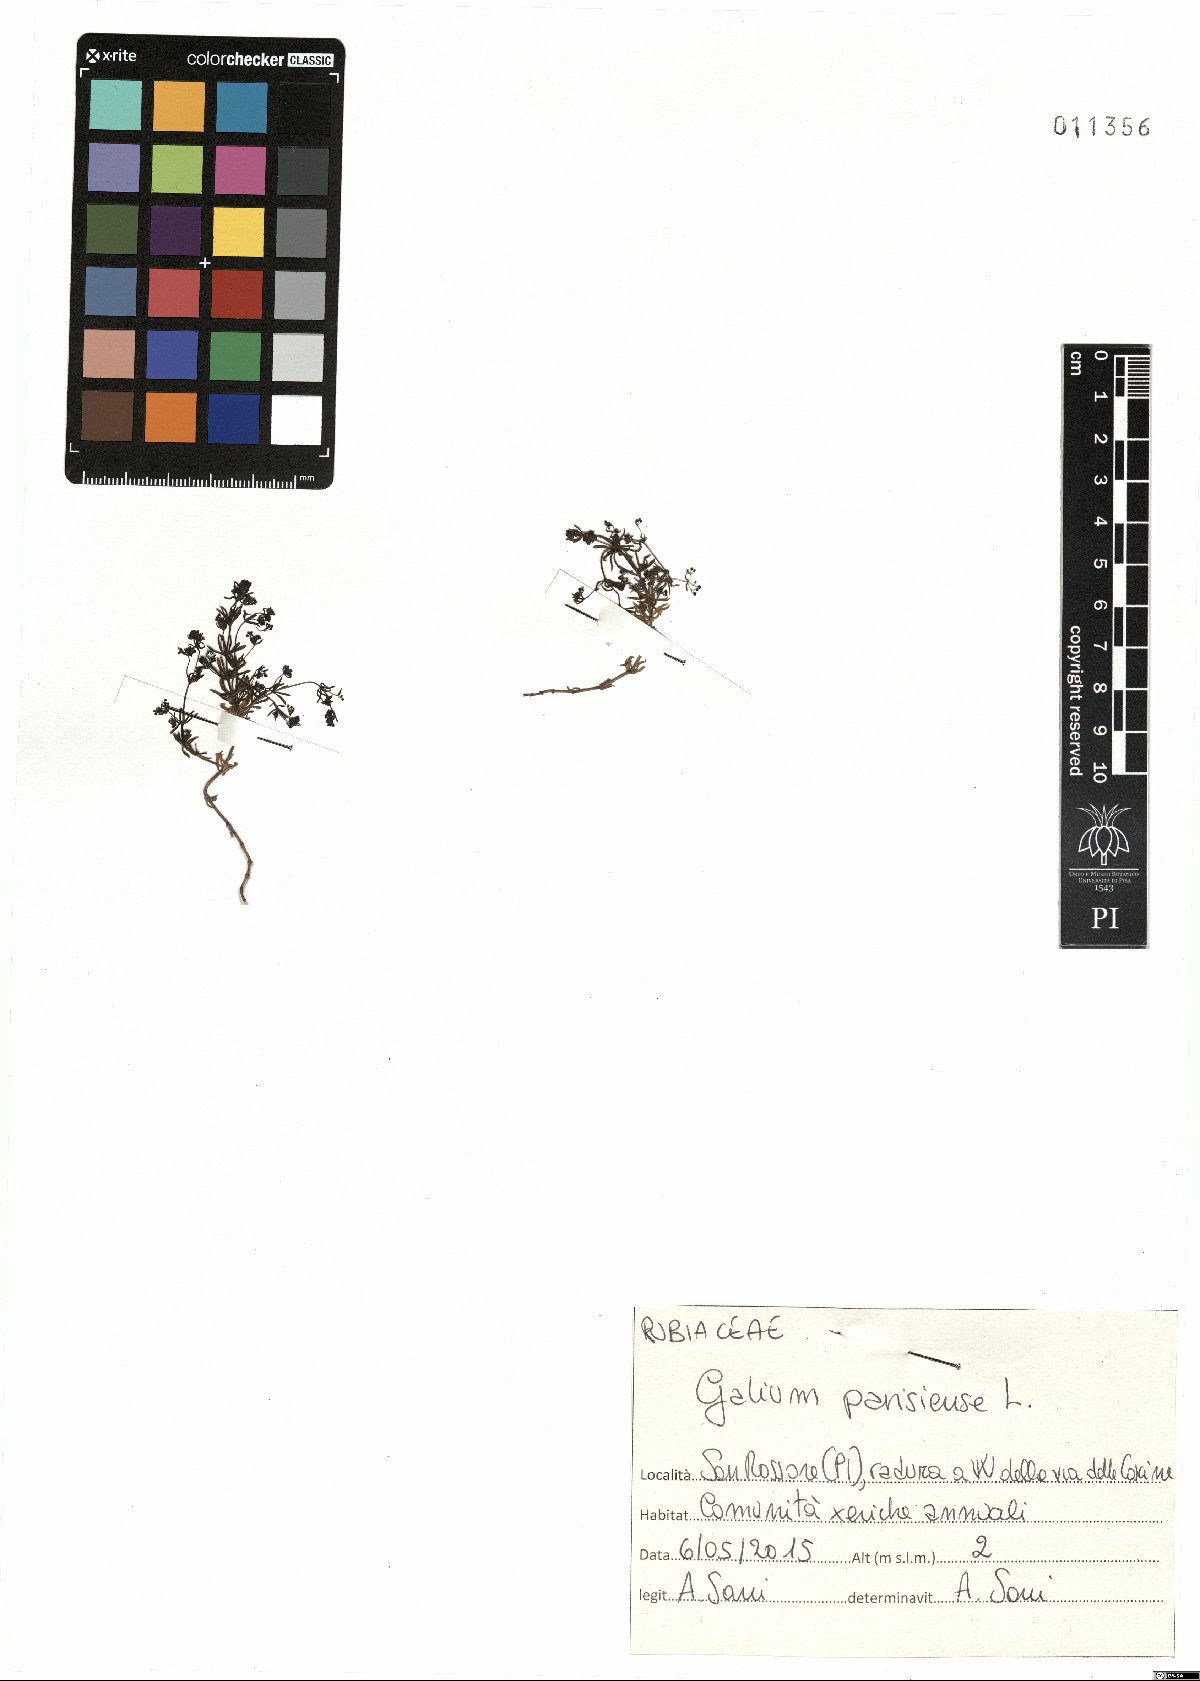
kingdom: Plantae
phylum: Tracheophyta
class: Magnoliopsida
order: Gentianales
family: Rubiaceae
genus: Galium
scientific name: Galium parisiense
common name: Wall bedstraw
